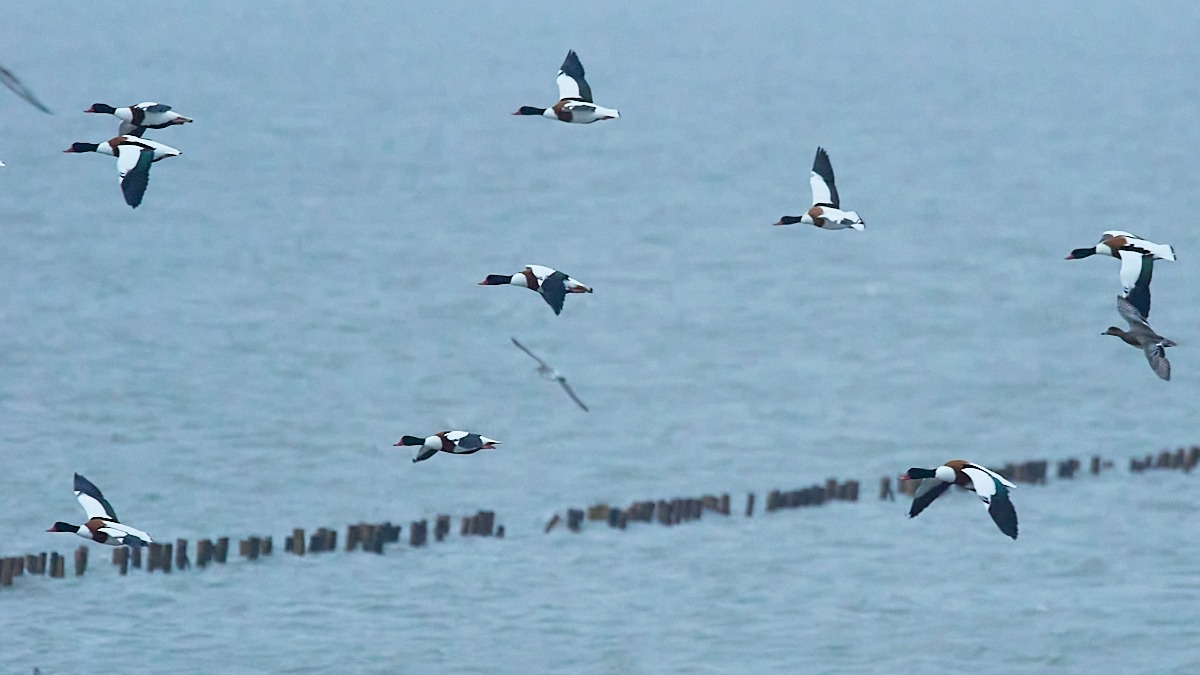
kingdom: Animalia
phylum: Chordata
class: Aves
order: Anseriformes
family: Anatidae
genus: Tadorna
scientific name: Tadorna tadorna
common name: Gravand
